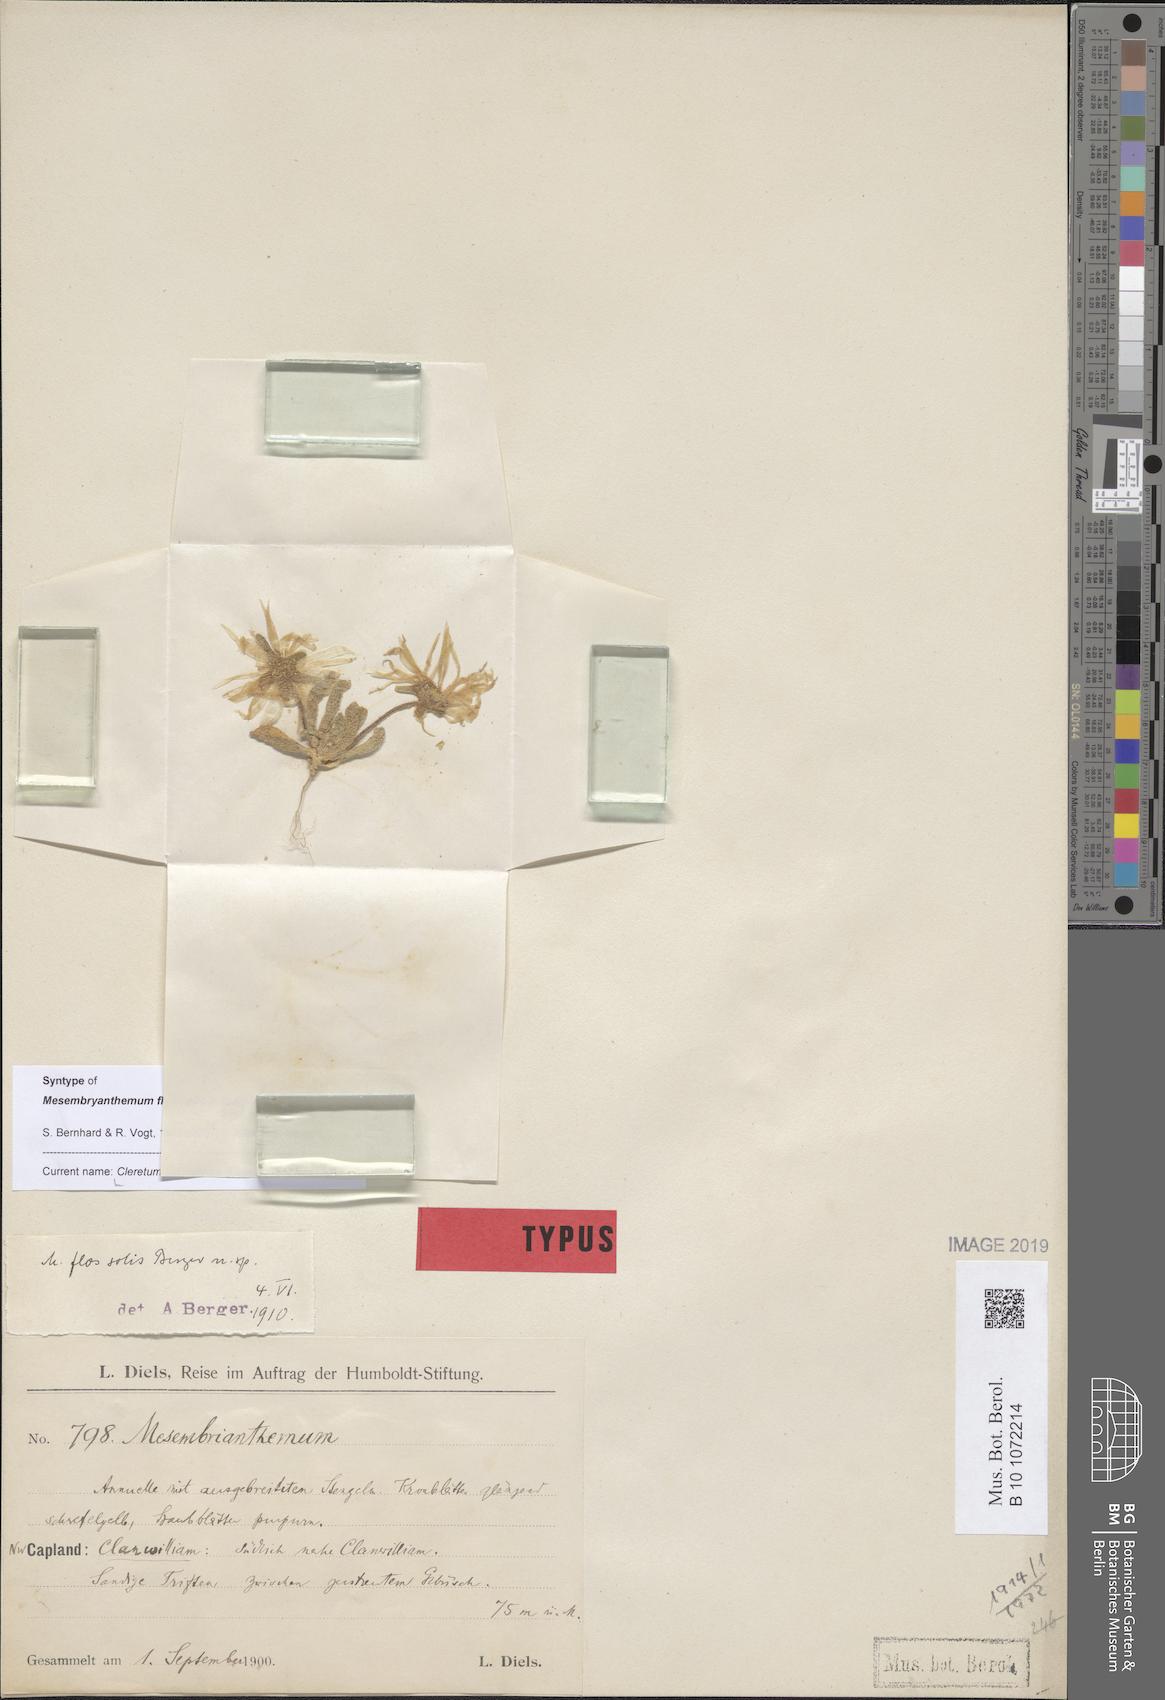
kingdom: Plantae
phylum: Tracheophyta
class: Magnoliopsida
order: Caryophyllales
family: Aizoaceae
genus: Cleretum
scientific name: Cleretum bellidiforme
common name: Livingstone daisy
